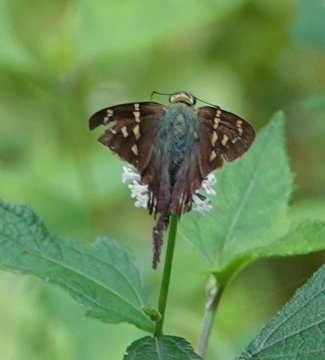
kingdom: Animalia
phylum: Arthropoda
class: Insecta
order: Lepidoptera
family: Hesperiidae
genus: Urbanus
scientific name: Urbanus proteus
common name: Long-tailed Skipper
